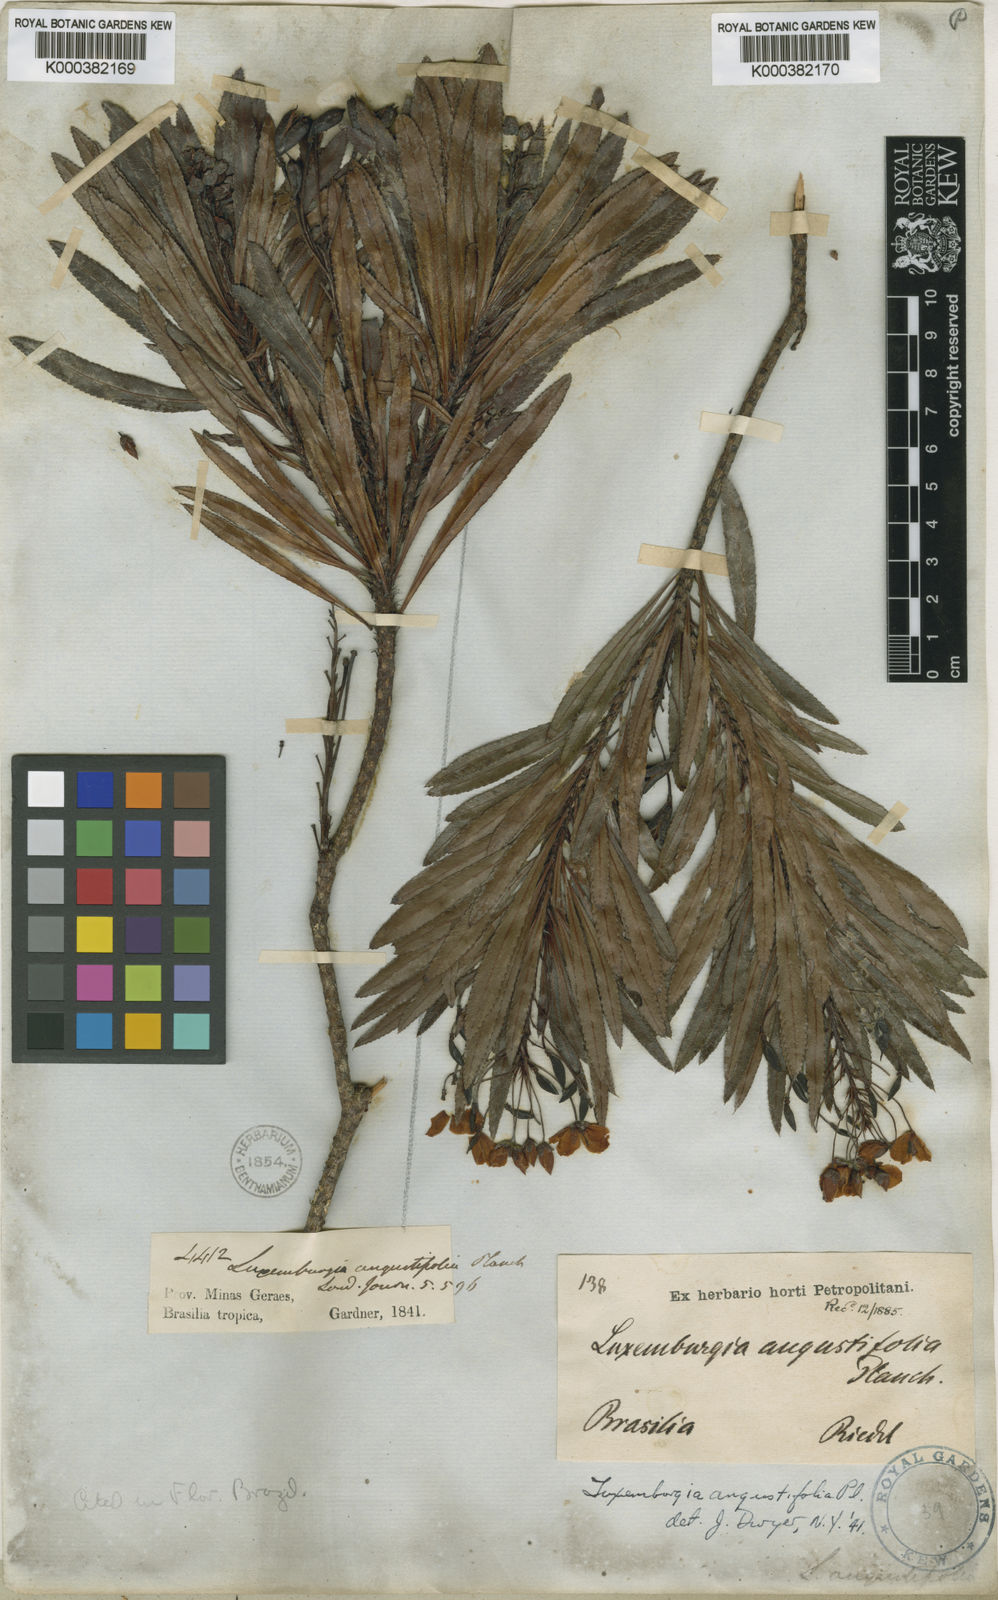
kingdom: Plantae
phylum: Tracheophyta
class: Magnoliopsida
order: Malpighiales
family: Ochnaceae
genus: Luxemburgia
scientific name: Luxemburgia angustifolia
